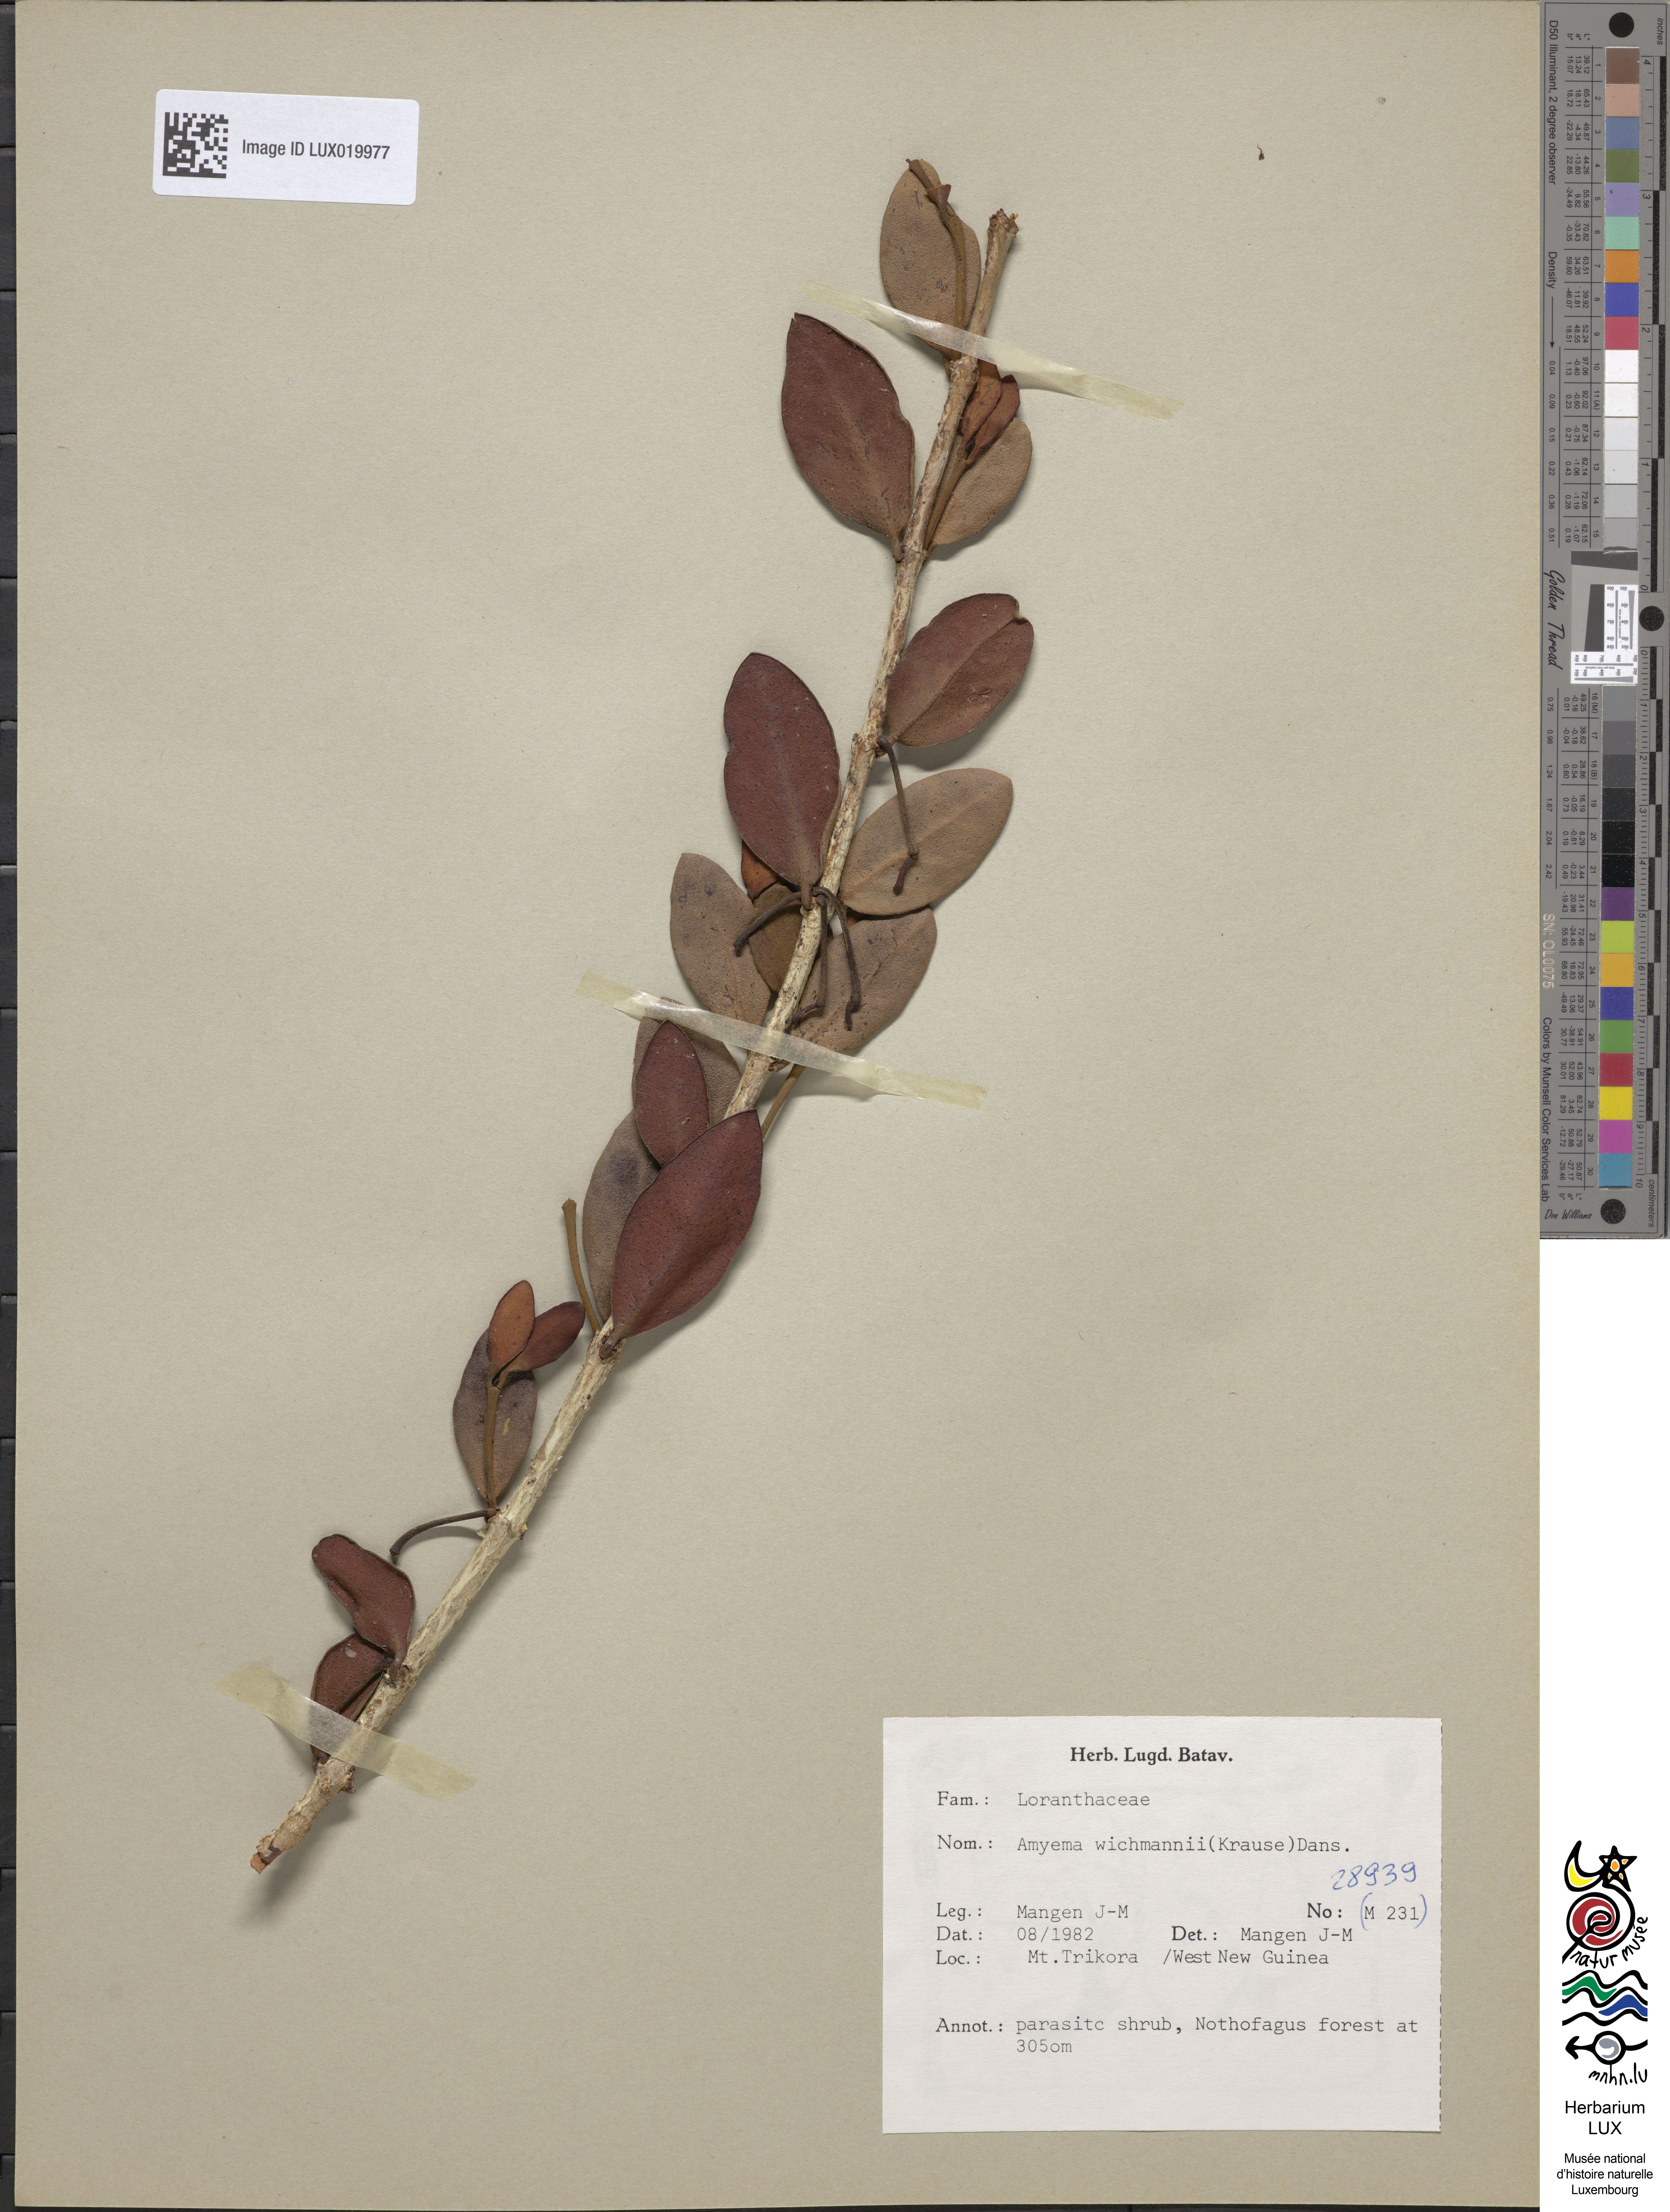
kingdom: Plantae
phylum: Tracheophyta
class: Magnoliopsida
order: Santalales
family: Loranthaceae
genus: Amyema
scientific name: Amyema wichmannii
